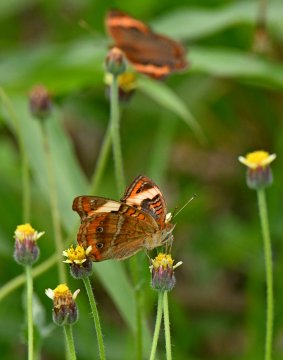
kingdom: Animalia
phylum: Arthropoda
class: Insecta
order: Lepidoptera
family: Nymphalidae
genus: Junonia
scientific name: Junonia evarete
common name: Mangrove Buckeye
